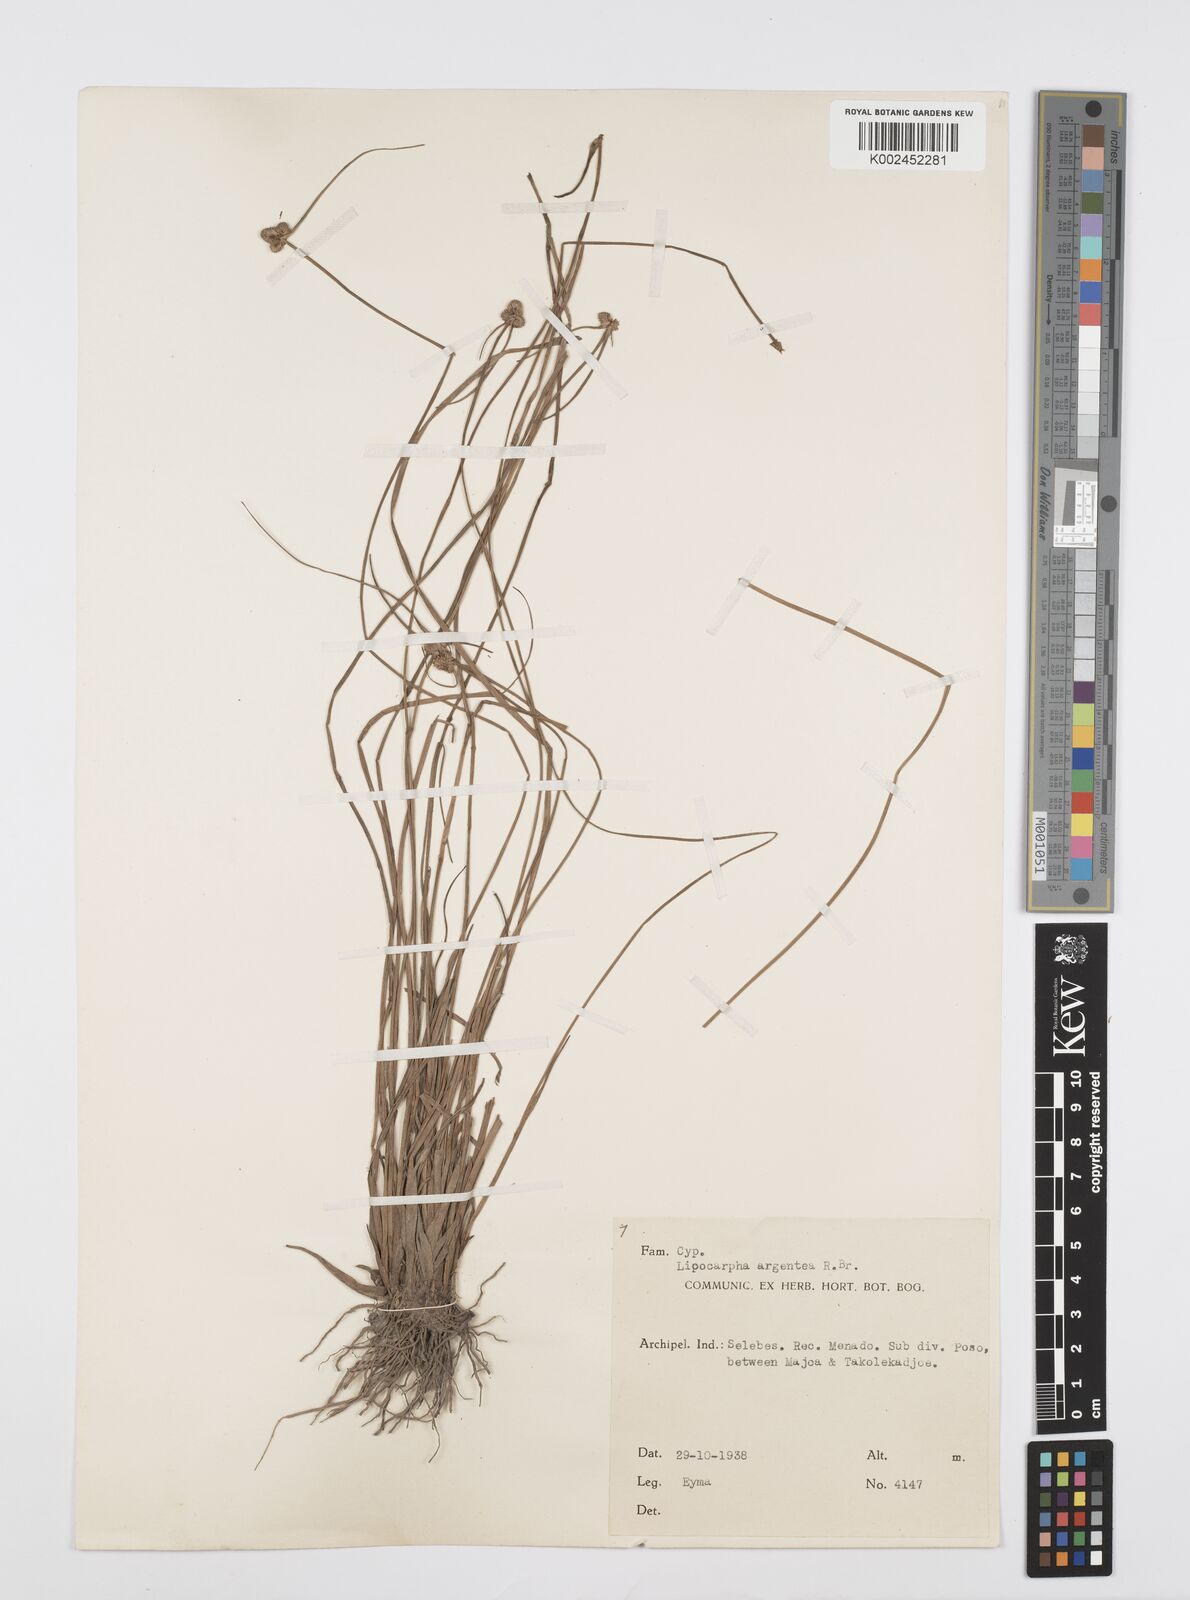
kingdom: Plantae
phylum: Tracheophyta
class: Liliopsida
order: Poales
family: Cyperaceae
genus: Cyperus
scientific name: Cyperus albescens
